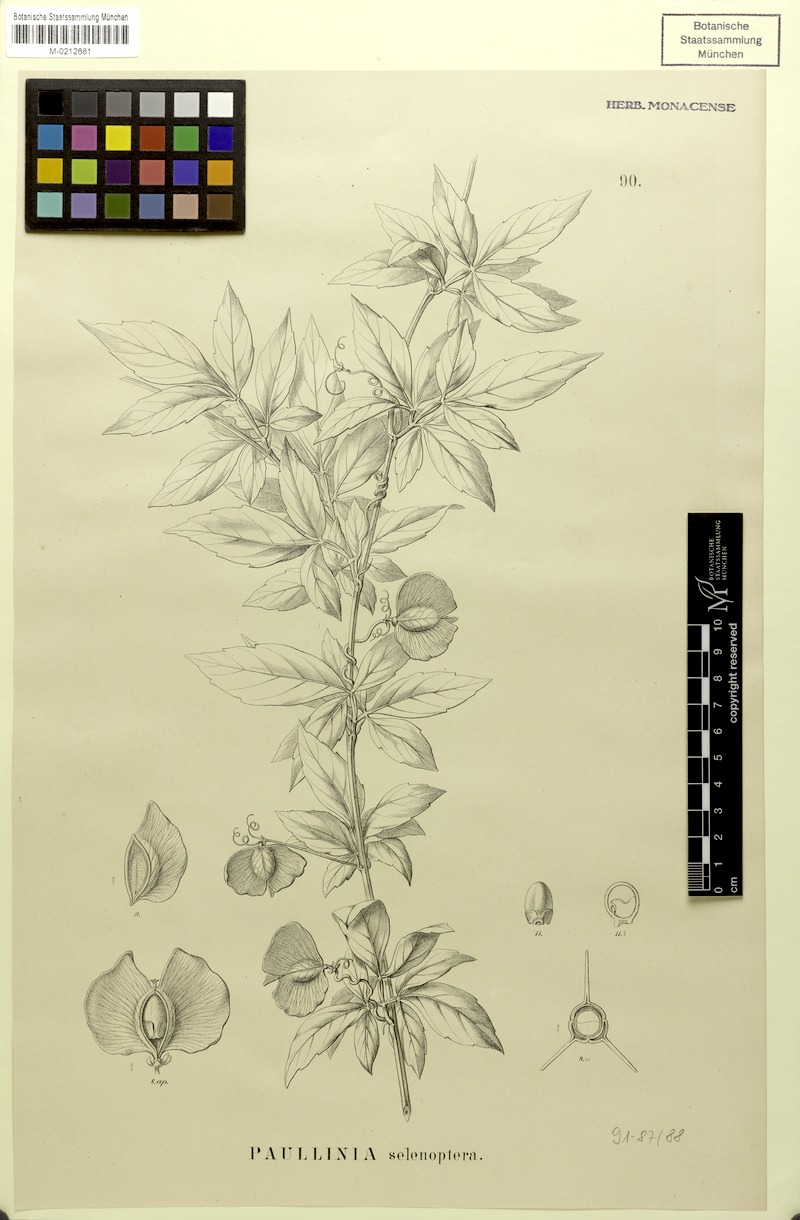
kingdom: Plantae
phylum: Tracheophyta
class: Magnoliopsida
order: Sapindales
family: Sapindaceae
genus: Paullinia
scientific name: Paullinia serjaniifolia
